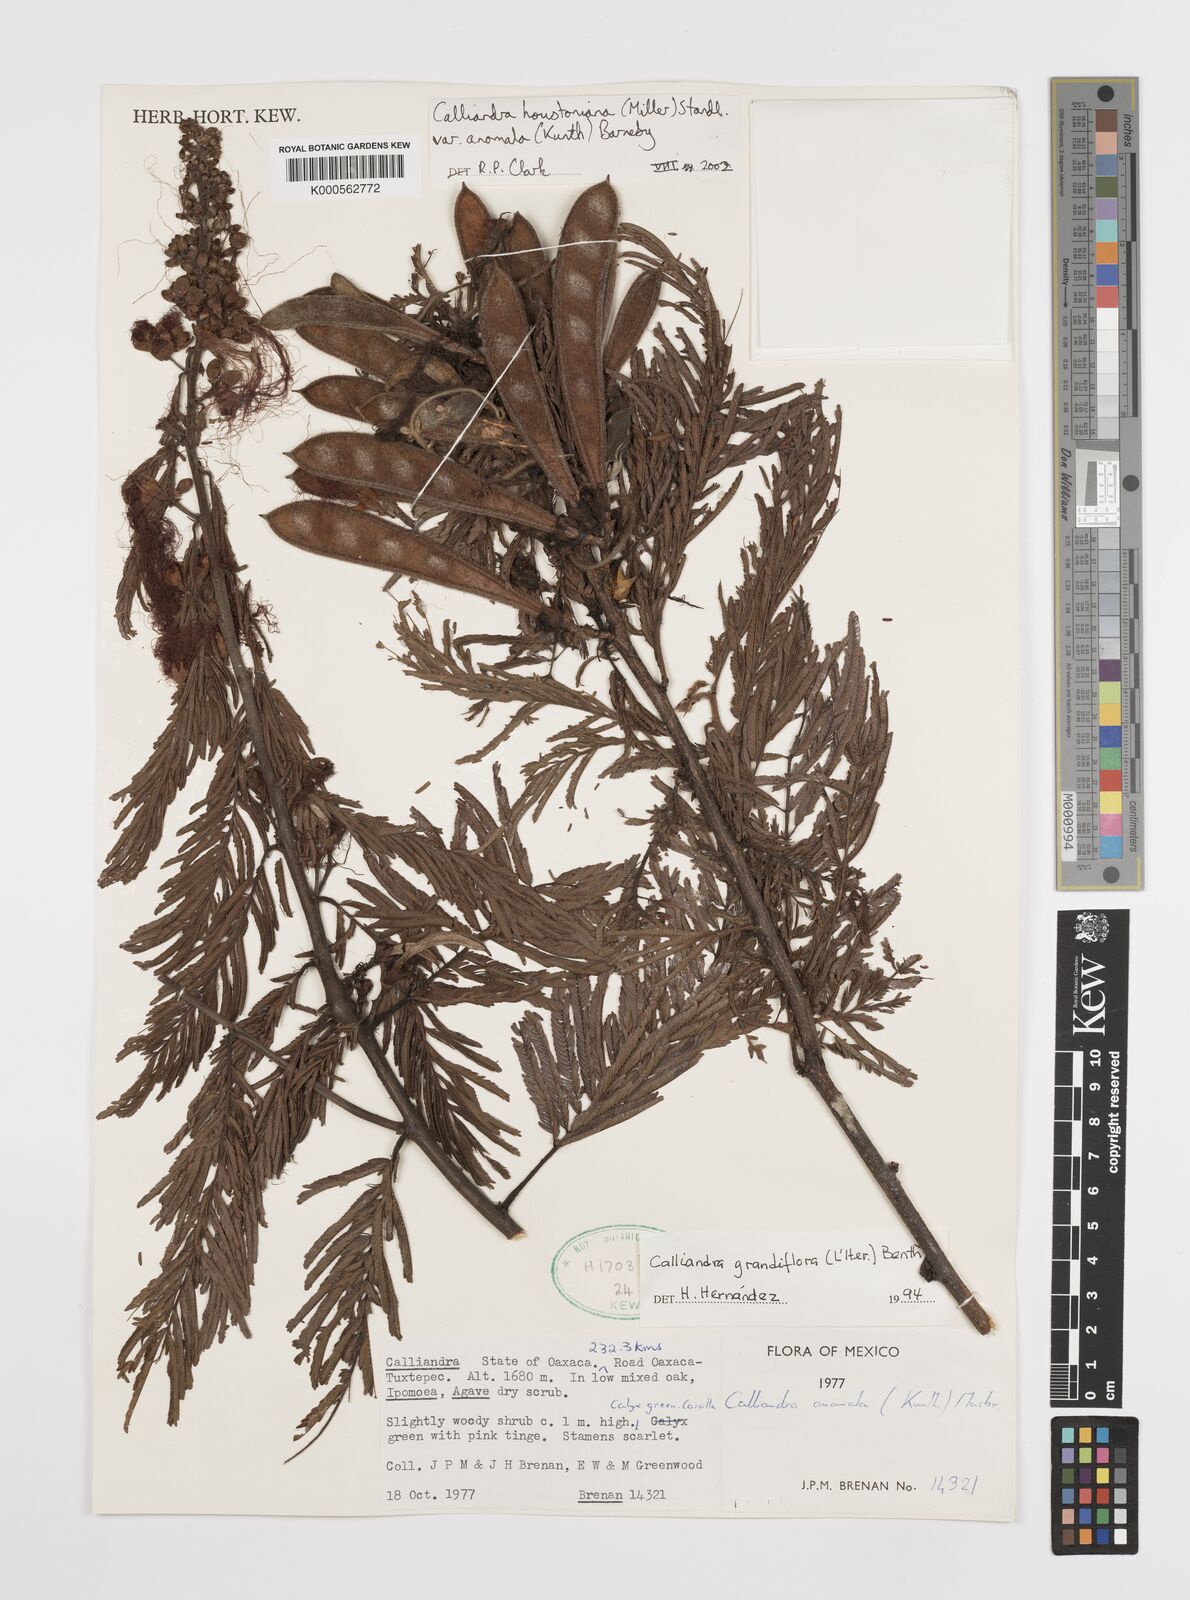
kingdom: Plantae
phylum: Tracheophyta
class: Magnoliopsida
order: Fabales
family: Fabaceae
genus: Calliandra
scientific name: Calliandra houstoniana
